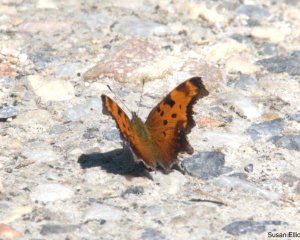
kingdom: Animalia
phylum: Arthropoda
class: Insecta
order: Lepidoptera
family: Nymphalidae
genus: Polygonia
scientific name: Polygonia progne
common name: Gray Comma
